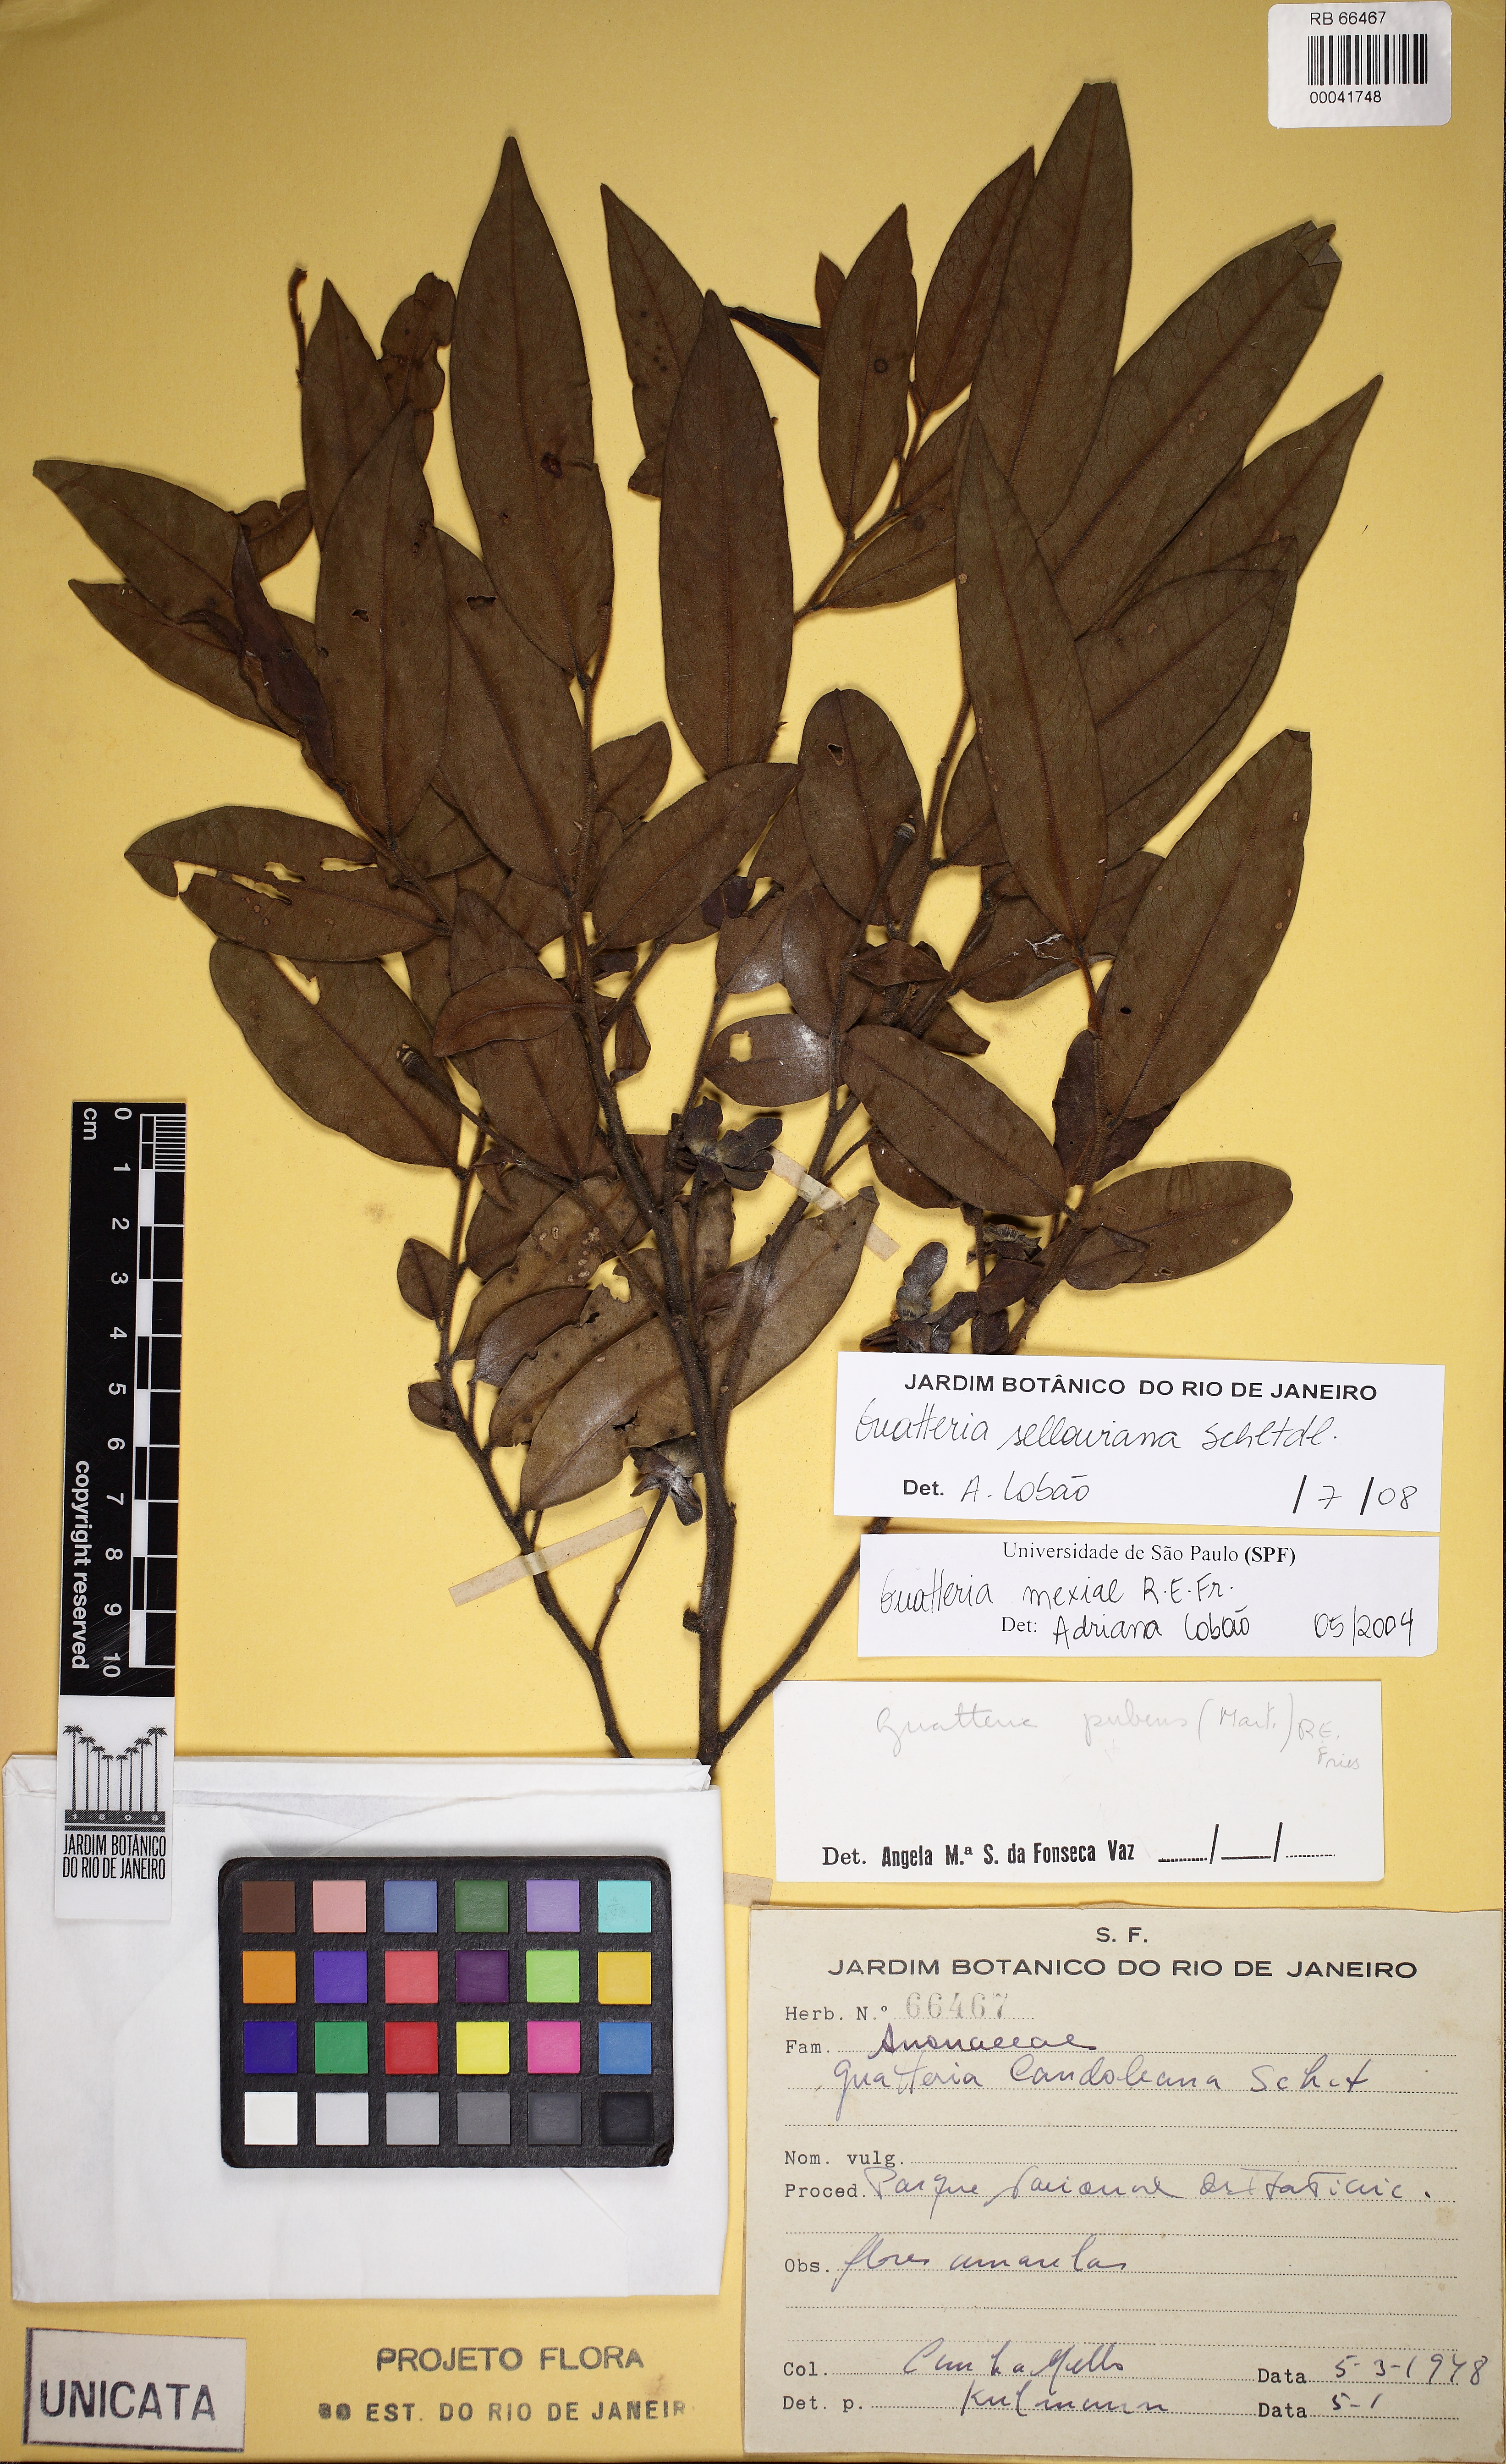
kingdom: Plantae
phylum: Tracheophyta
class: Magnoliopsida
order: Magnoliales
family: Annonaceae
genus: Guatteria
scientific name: Guatteria sellowiana
